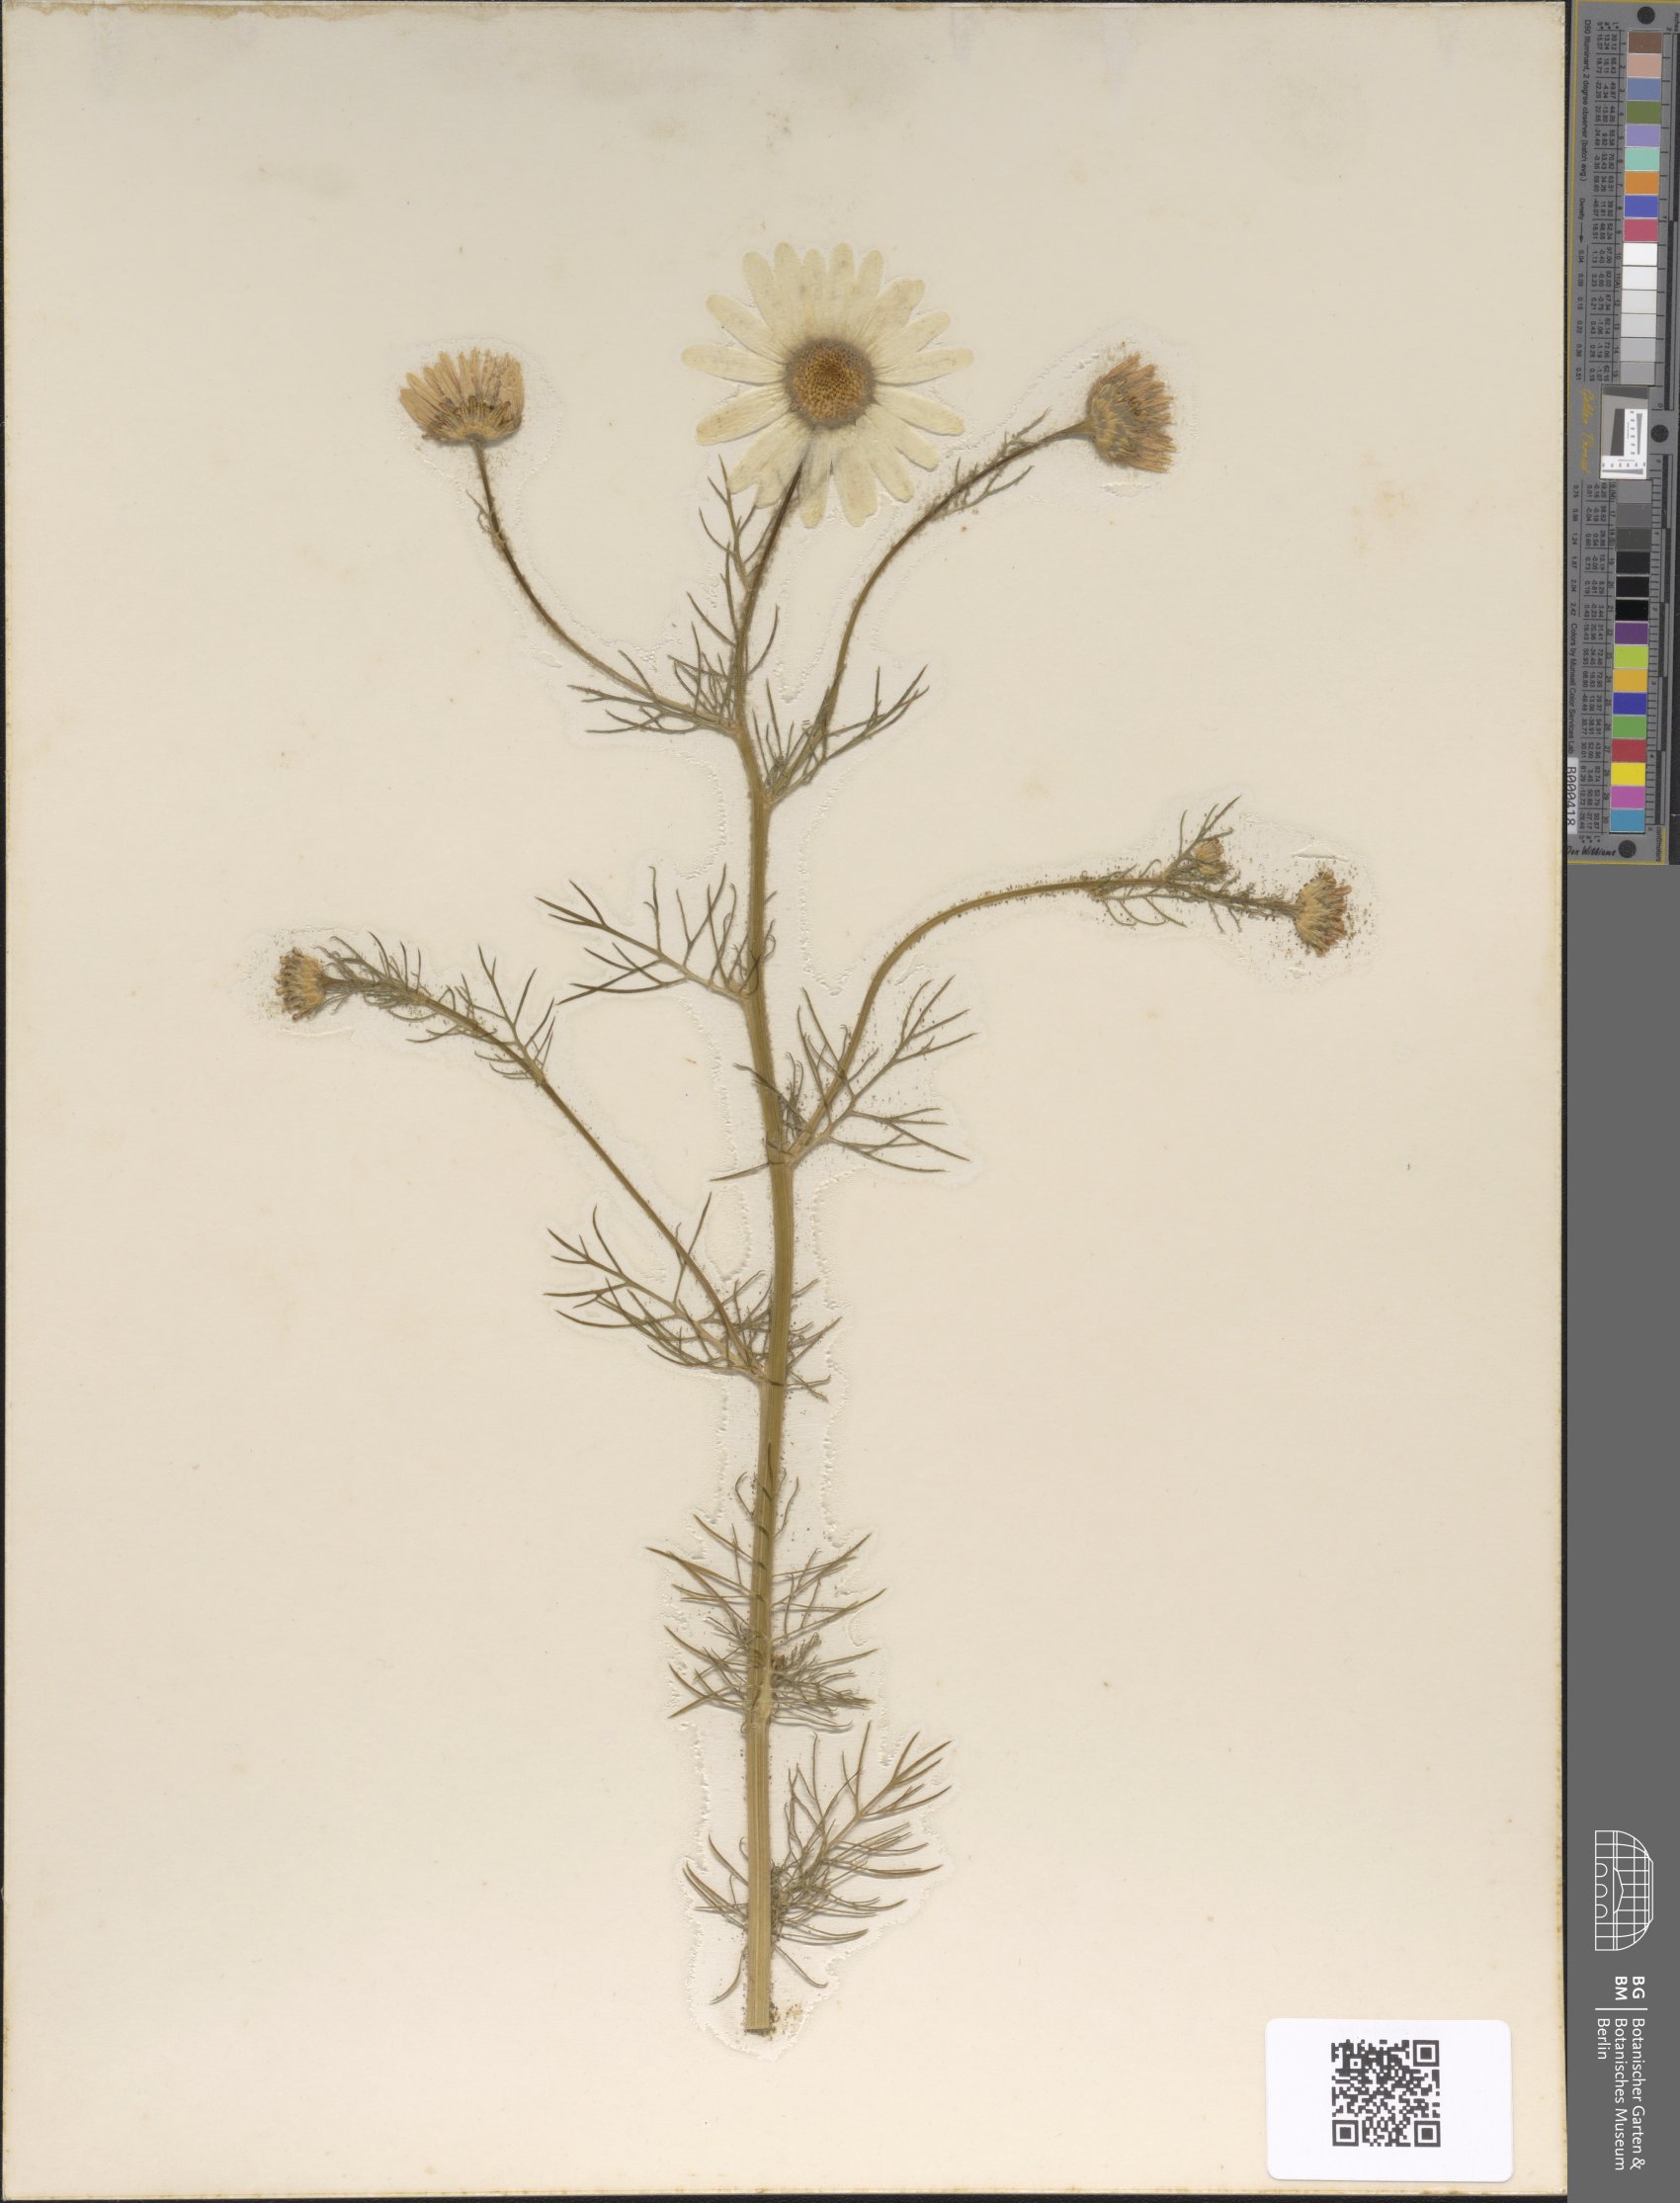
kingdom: Plantae
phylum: Tracheophyta
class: Magnoliopsida
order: Asterales
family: Asteraceae
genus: Tripleurospermum
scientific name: Tripleurospermum maritimum
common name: Sea mayweed
